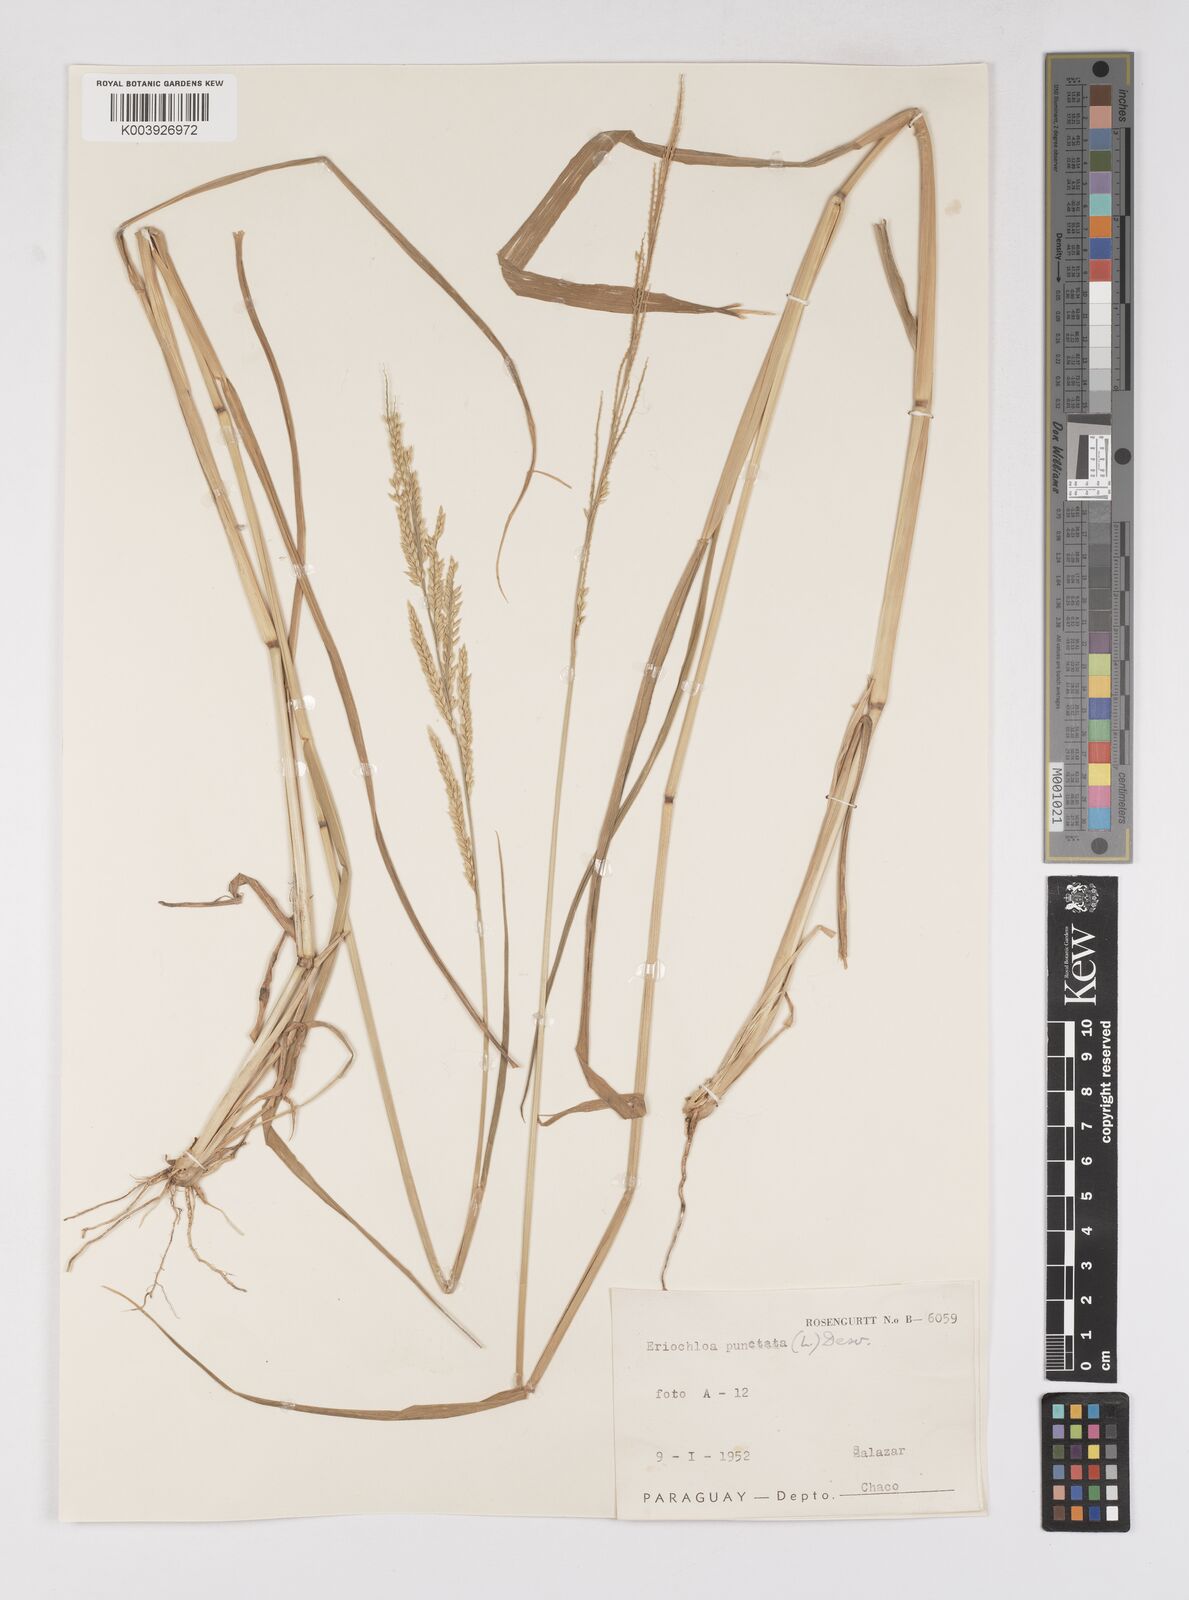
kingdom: Plantae
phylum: Tracheophyta
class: Liliopsida
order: Poales
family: Poaceae
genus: Eriochloa
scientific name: Eriochloa punctata
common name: Louisiana cupgrass
